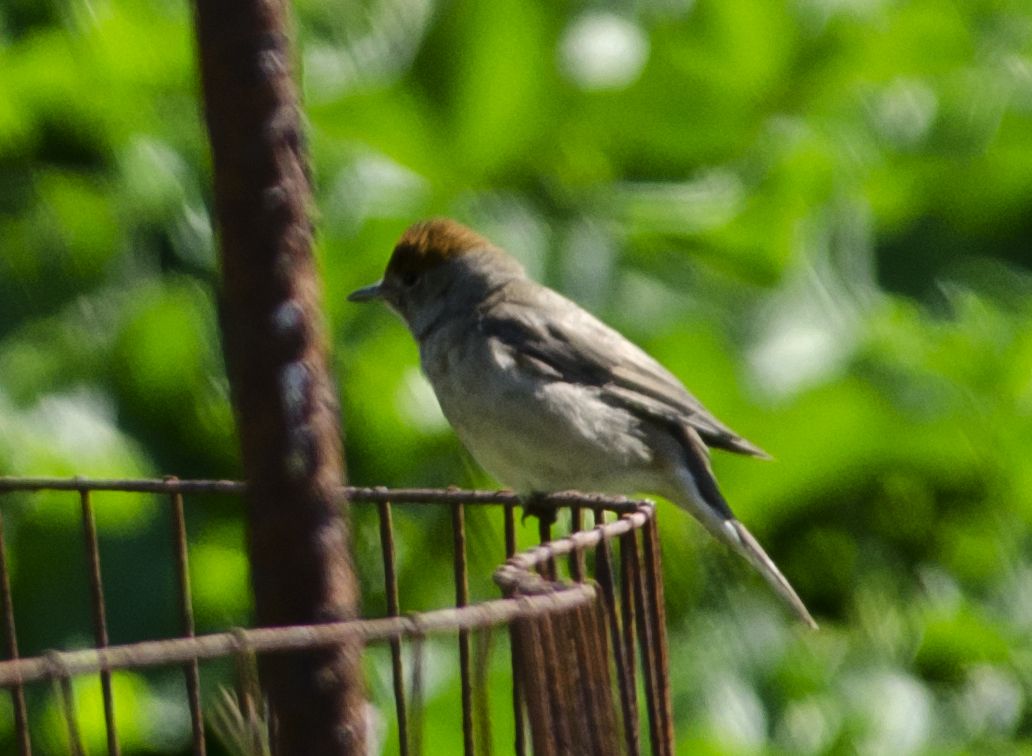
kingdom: Animalia
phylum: Chordata
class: Aves
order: Passeriformes
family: Sylviidae
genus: Sylvia
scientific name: Sylvia atricapilla
